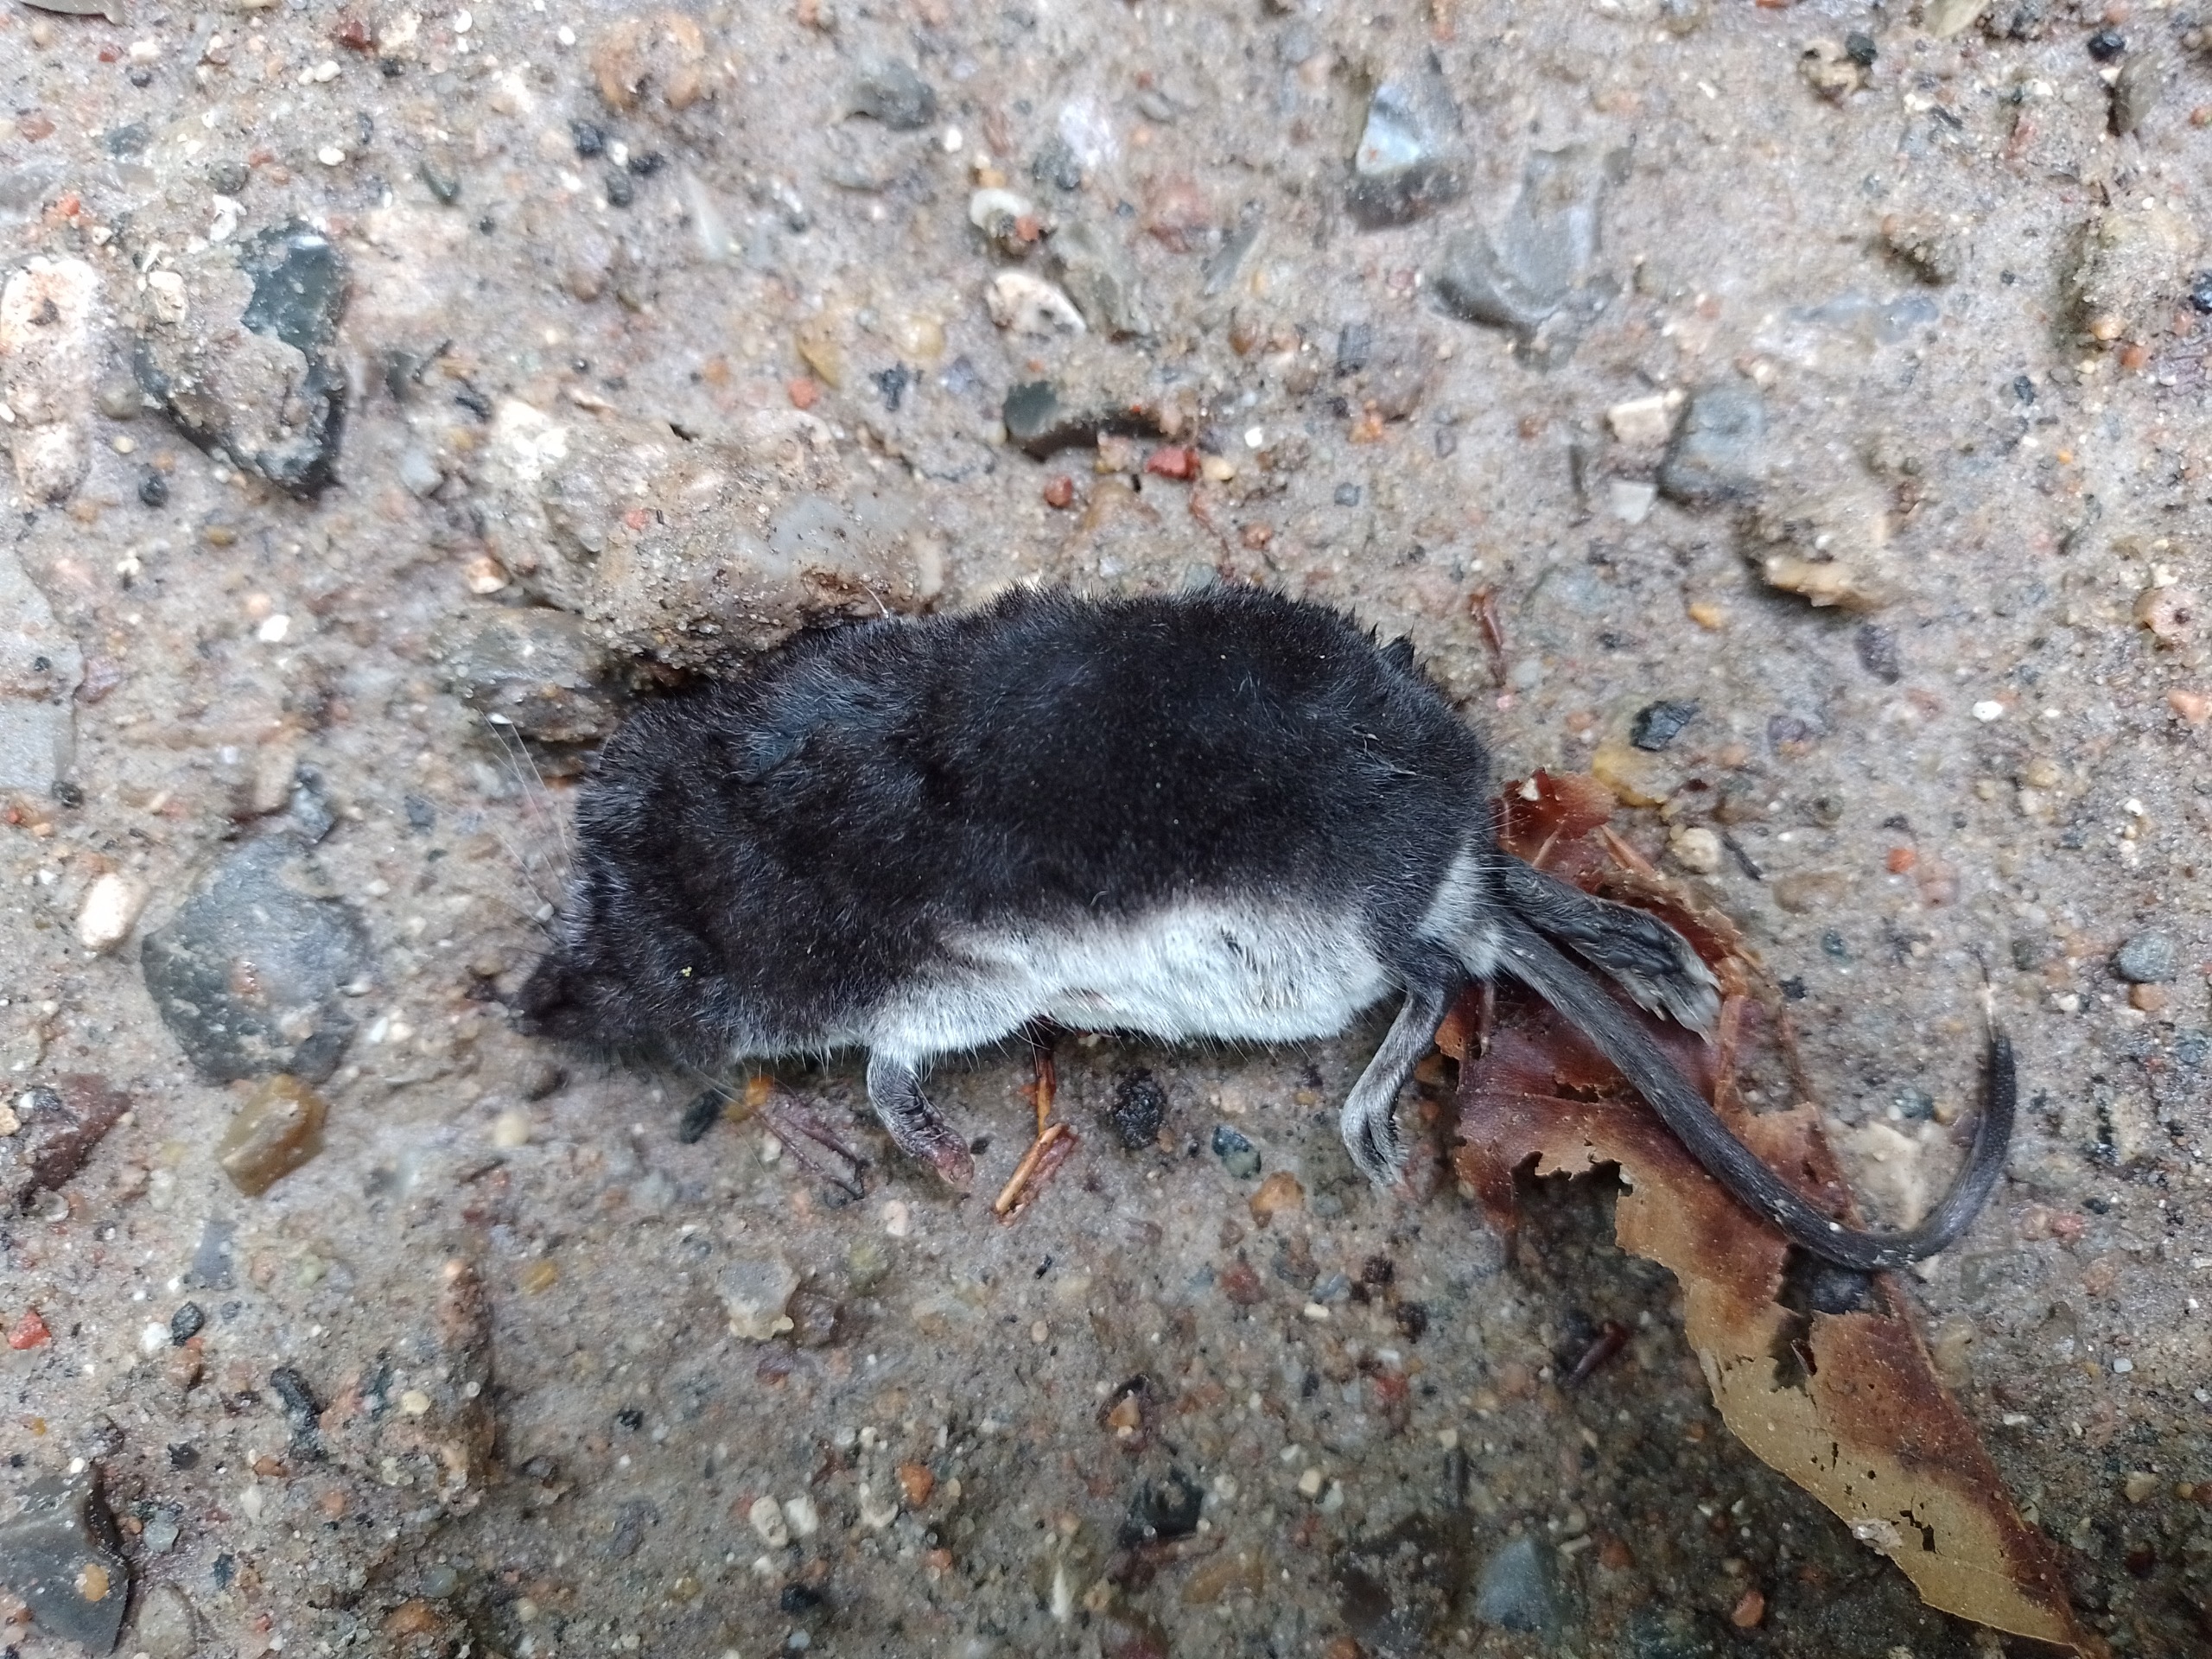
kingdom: Animalia
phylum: Chordata
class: Mammalia
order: Soricomorpha
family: Soricidae
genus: Neomys
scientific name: Neomys fodiens
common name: Vandspidsmus
